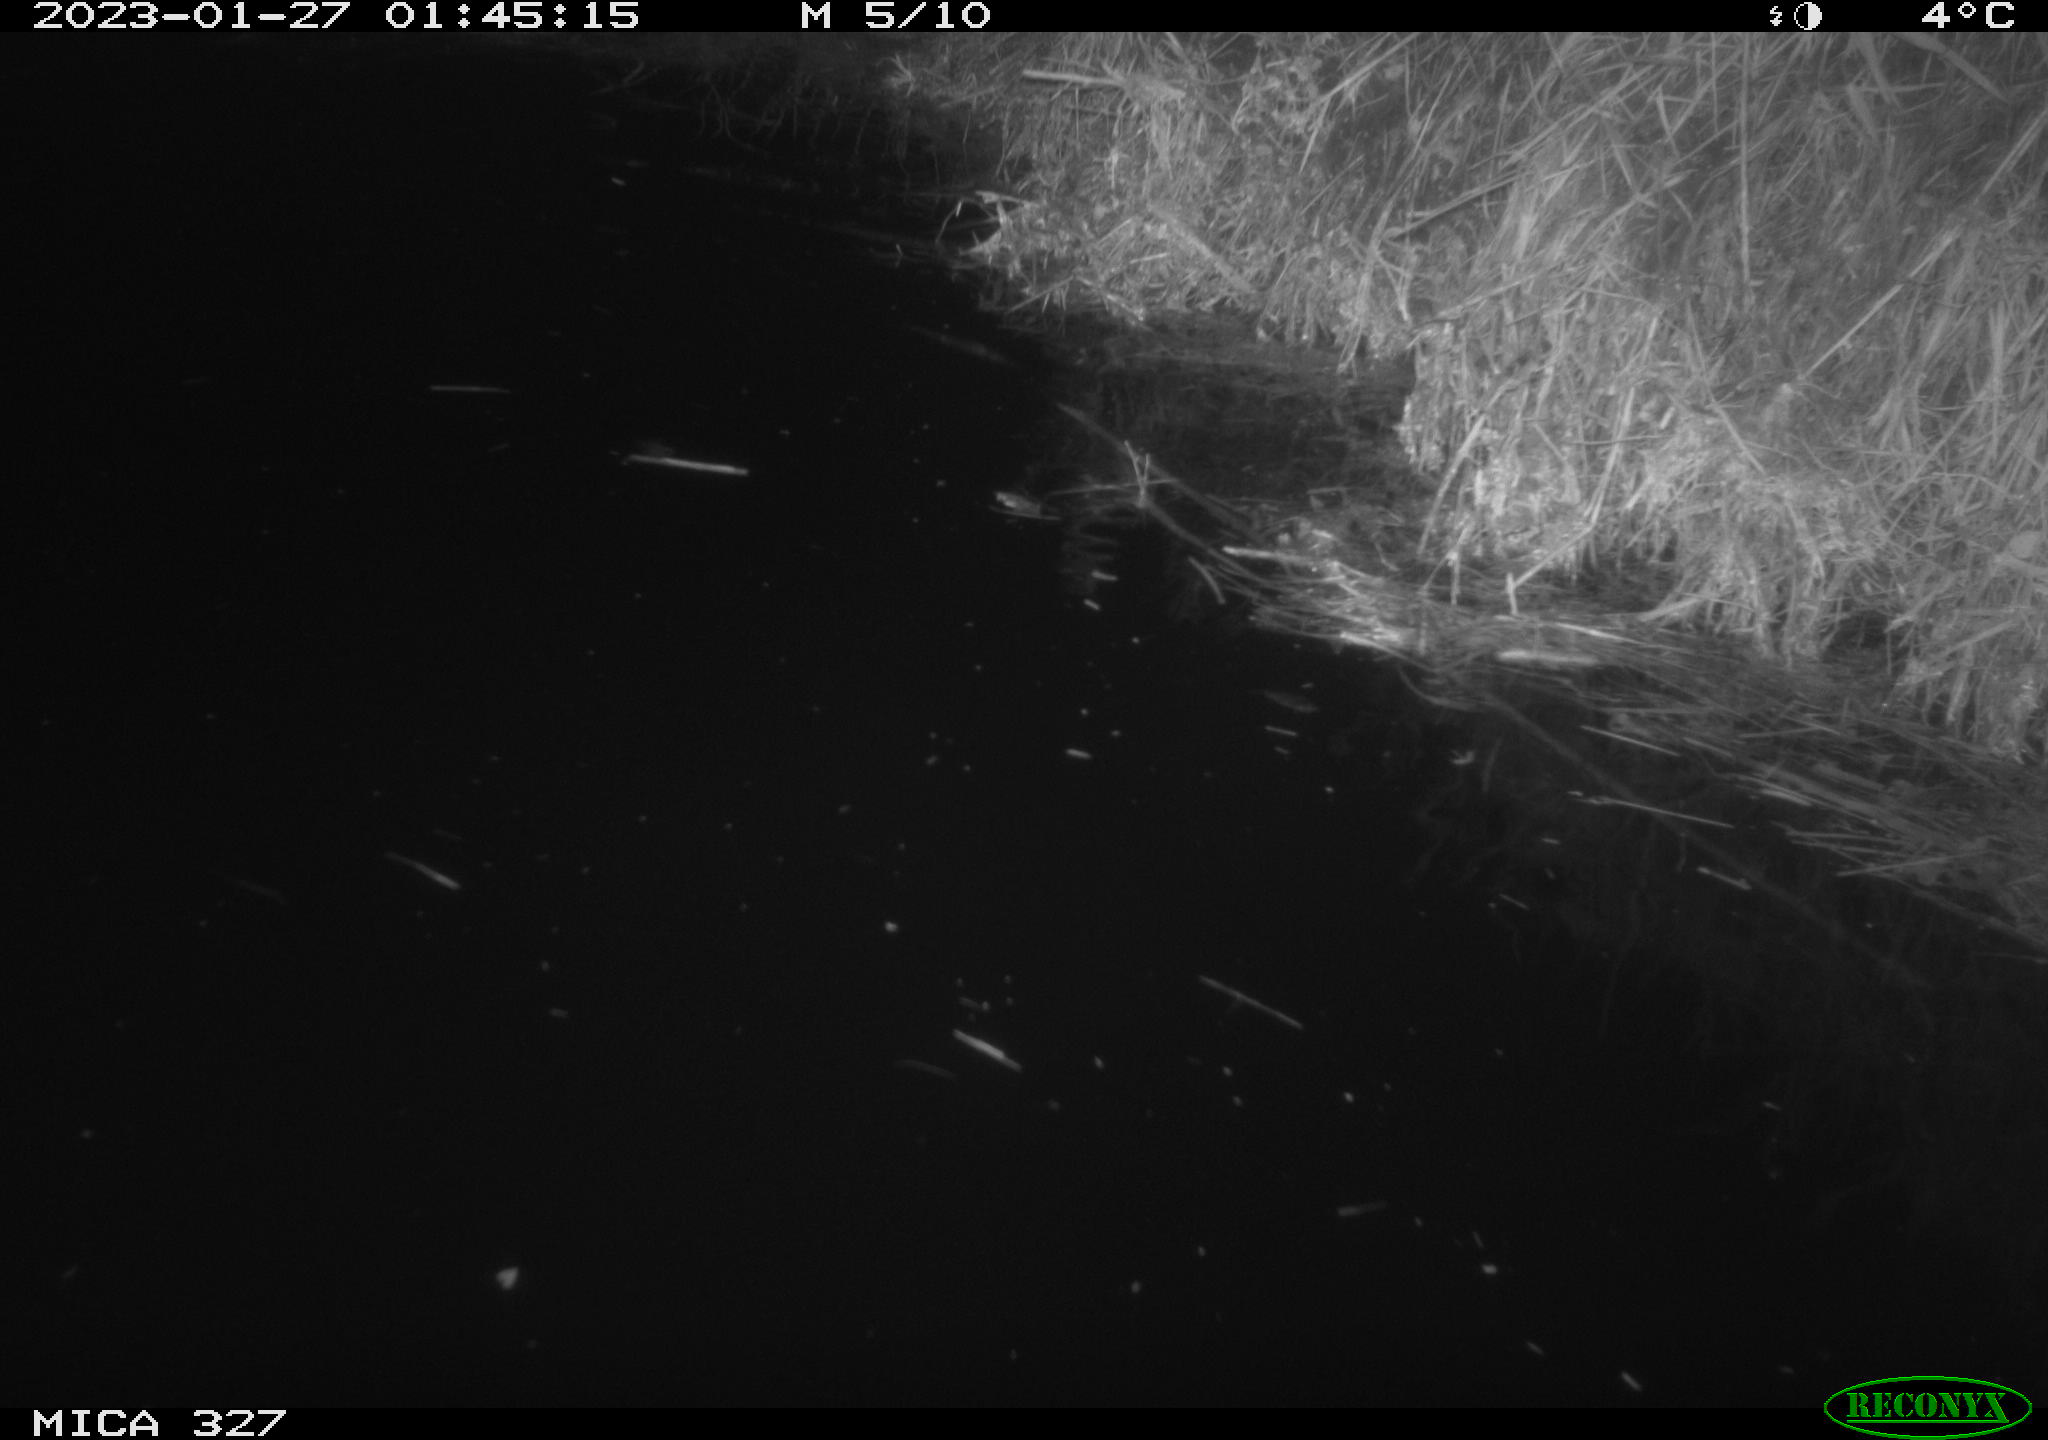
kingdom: Animalia
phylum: Chordata
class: Mammalia
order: Rodentia
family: Cricetidae
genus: Ondatra
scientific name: Ondatra zibethicus
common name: Muskrat
